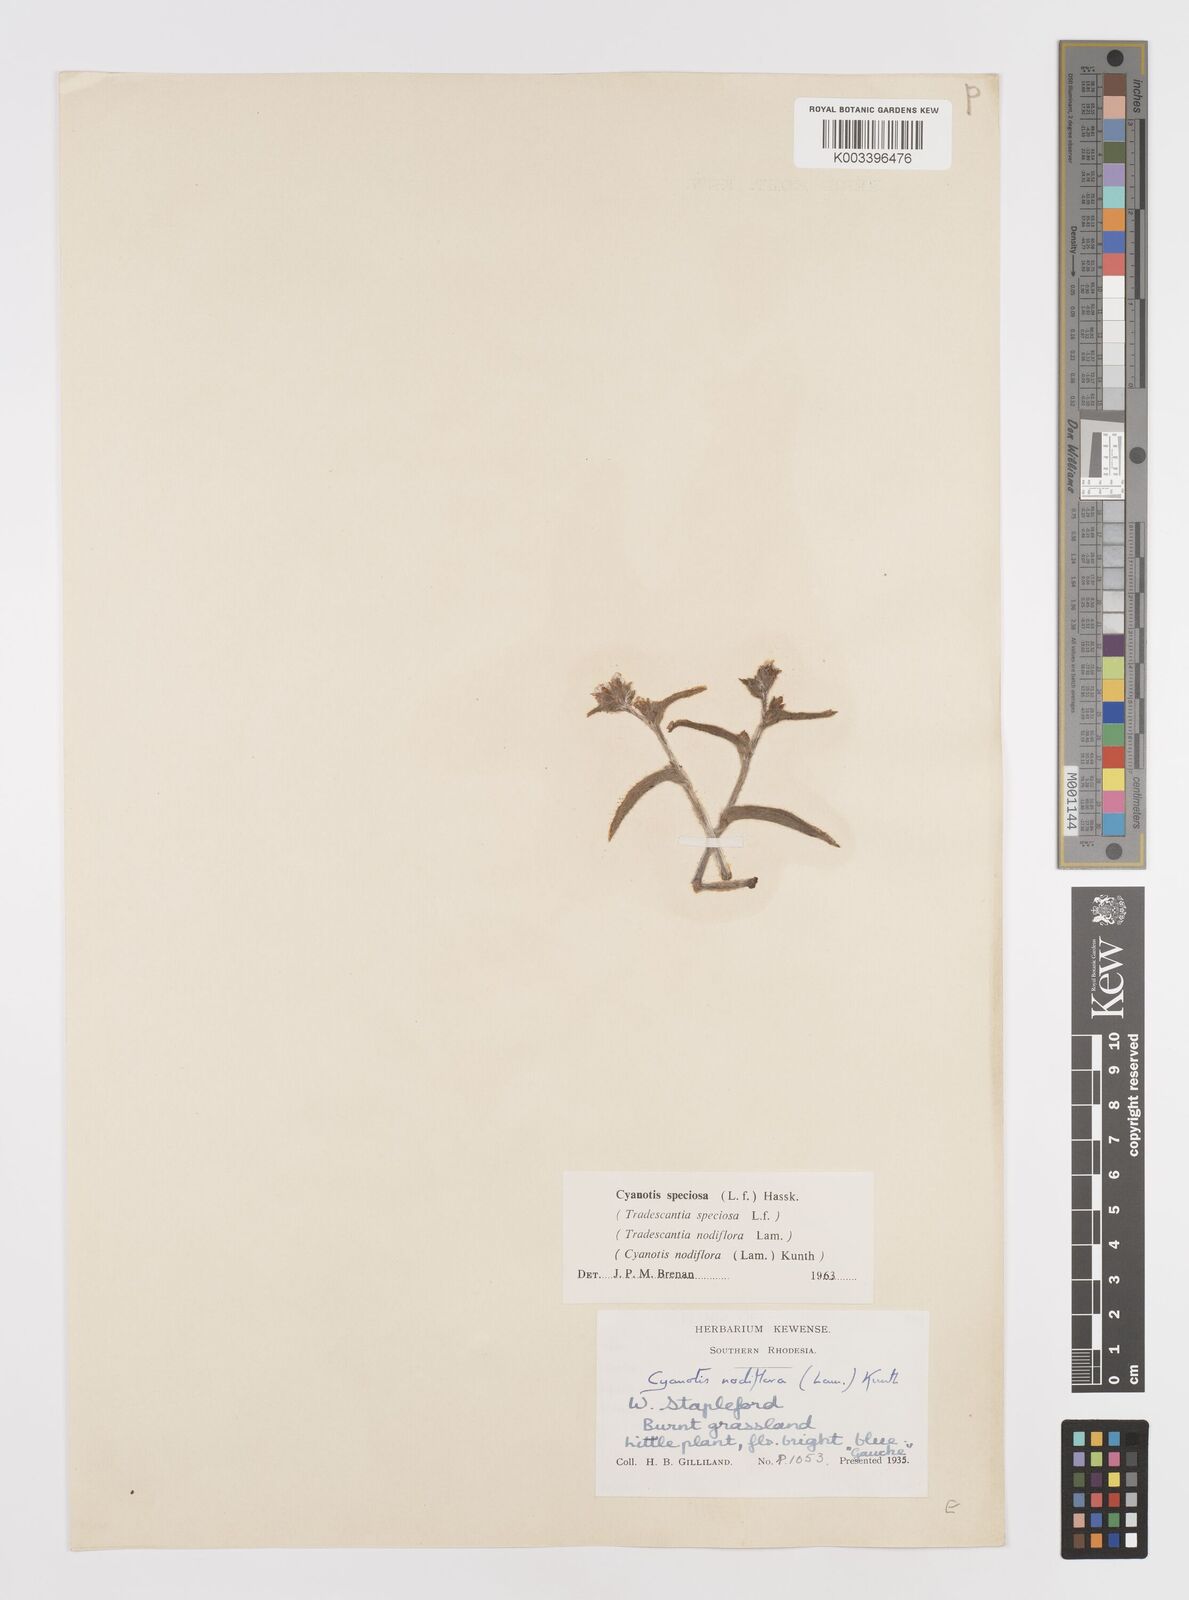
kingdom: Plantae
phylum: Tracheophyta
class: Liliopsida
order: Commelinales
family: Commelinaceae
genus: Cyanotis
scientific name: Cyanotis speciosa
